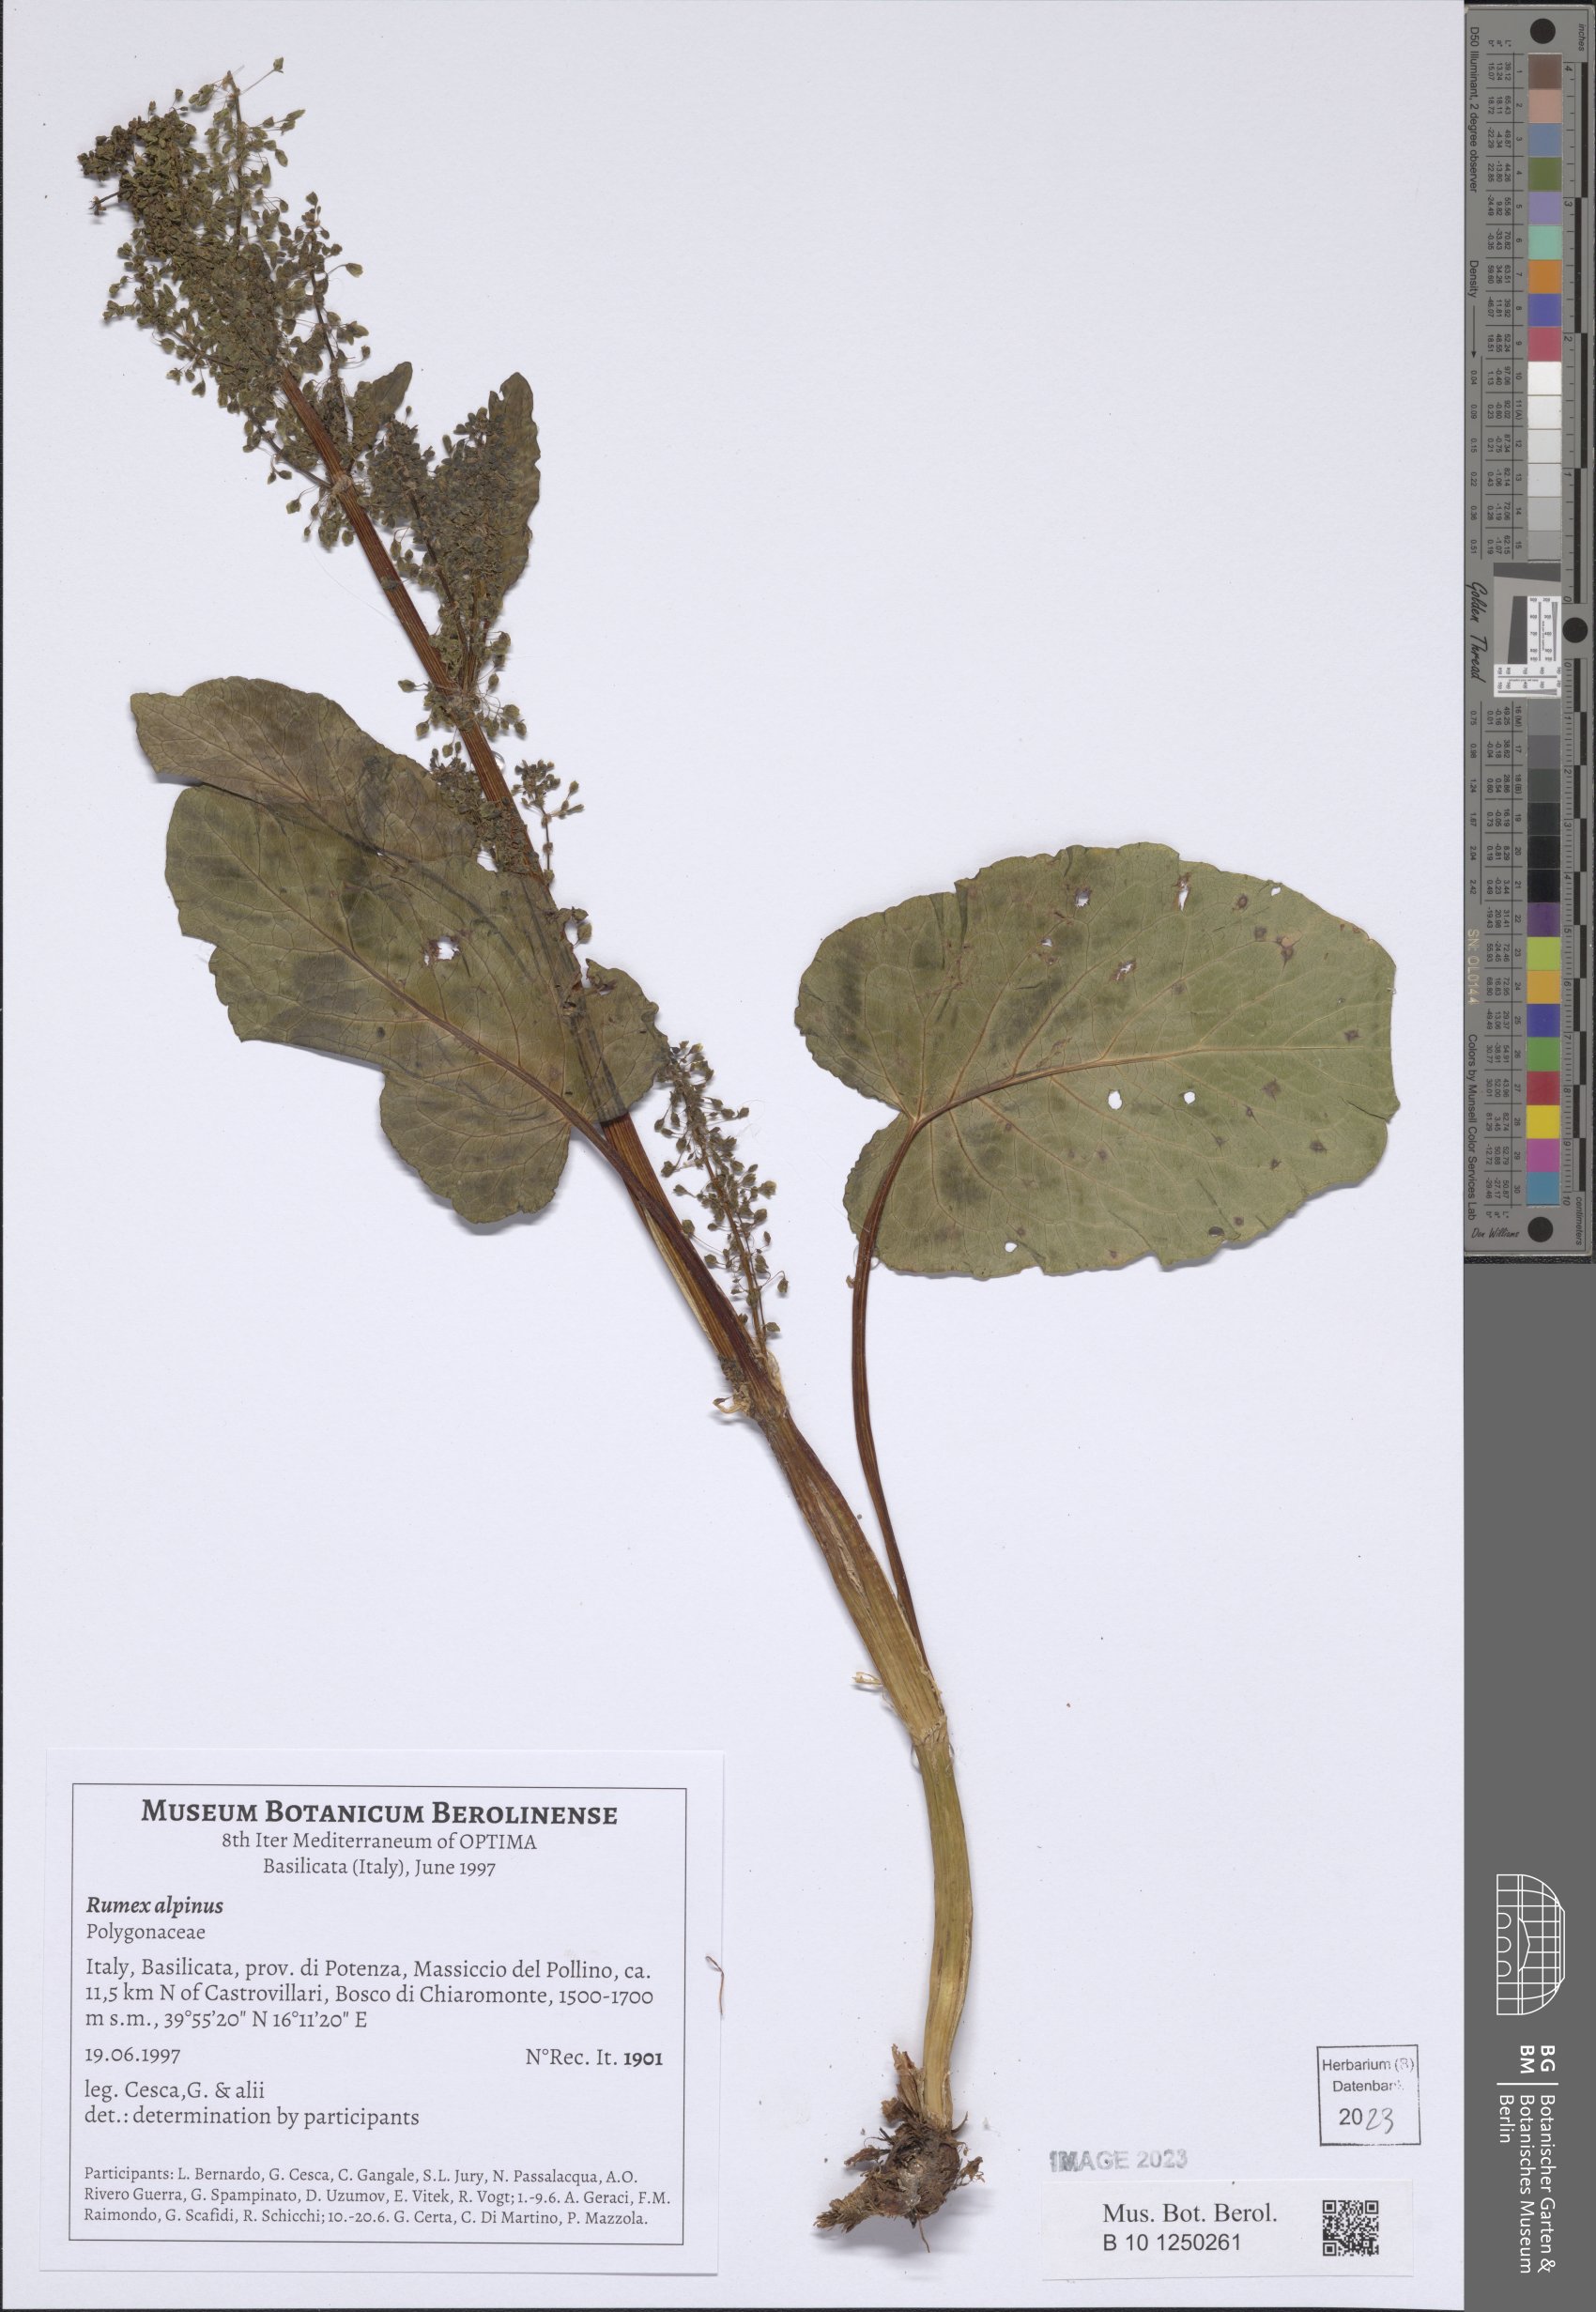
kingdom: Plantae
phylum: Tracheophyta
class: Magnoliopsida
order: Caryophyllales
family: Polygonaceae
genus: Rumex
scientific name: Rumex alpinus
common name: Alpine dock
